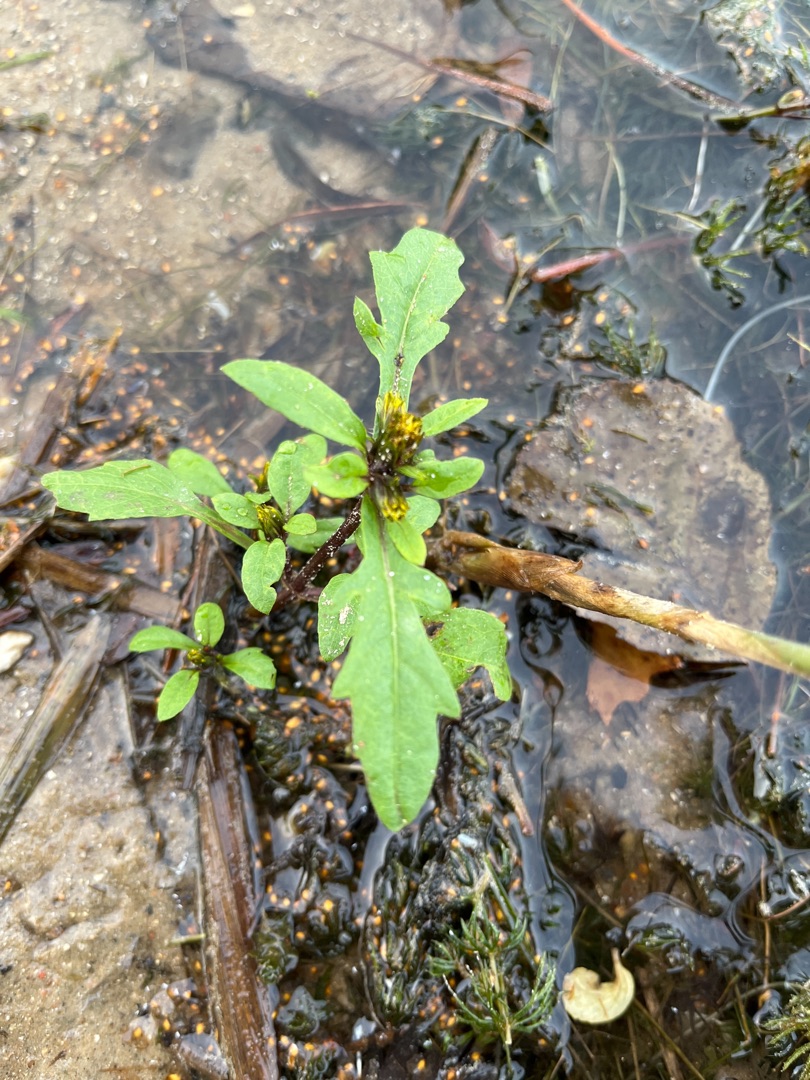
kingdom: Plantae
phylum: Tracheophyta
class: Magnoliopsida
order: Asterales
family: Asteraceae
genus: Bidens
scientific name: Bidens tripartita
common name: Fliget brøndsel
